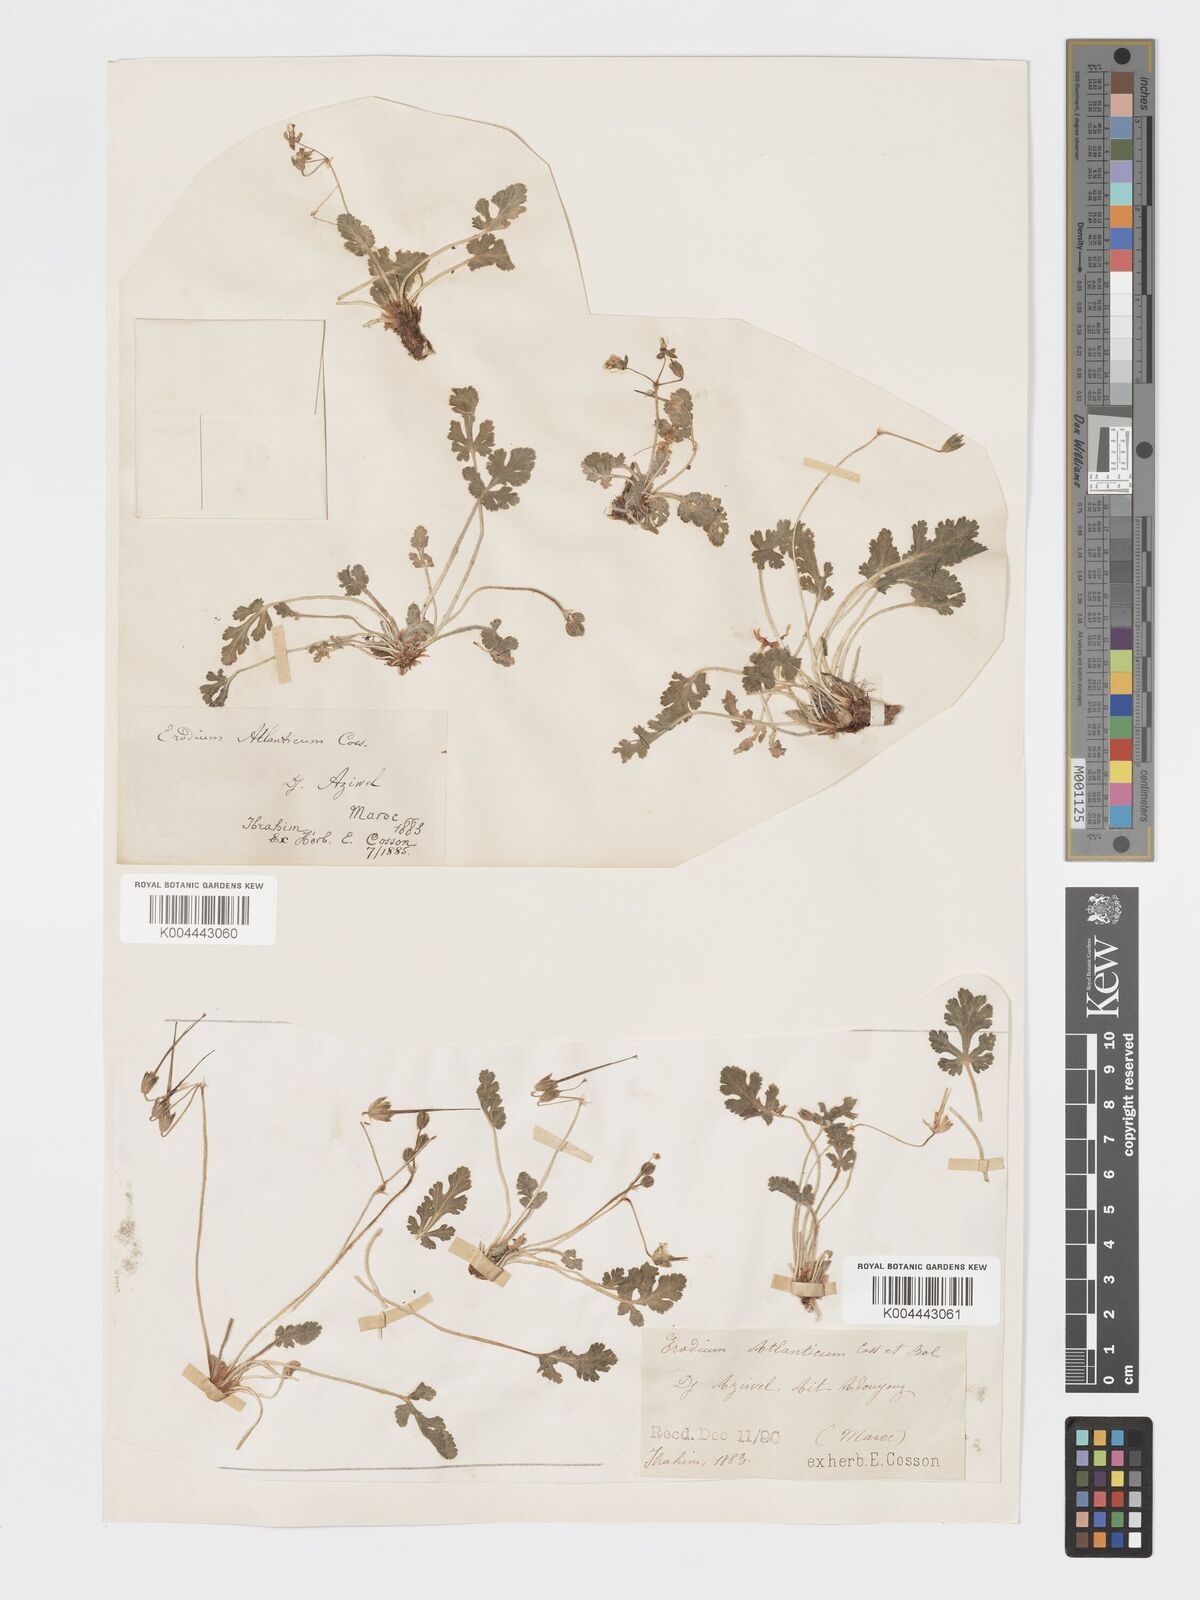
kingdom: Plantae
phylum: Tracheophyta
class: Magnoliopsida
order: Geraniales
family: Geraniaceae
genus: Erodium
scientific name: Erodium atlanticum
